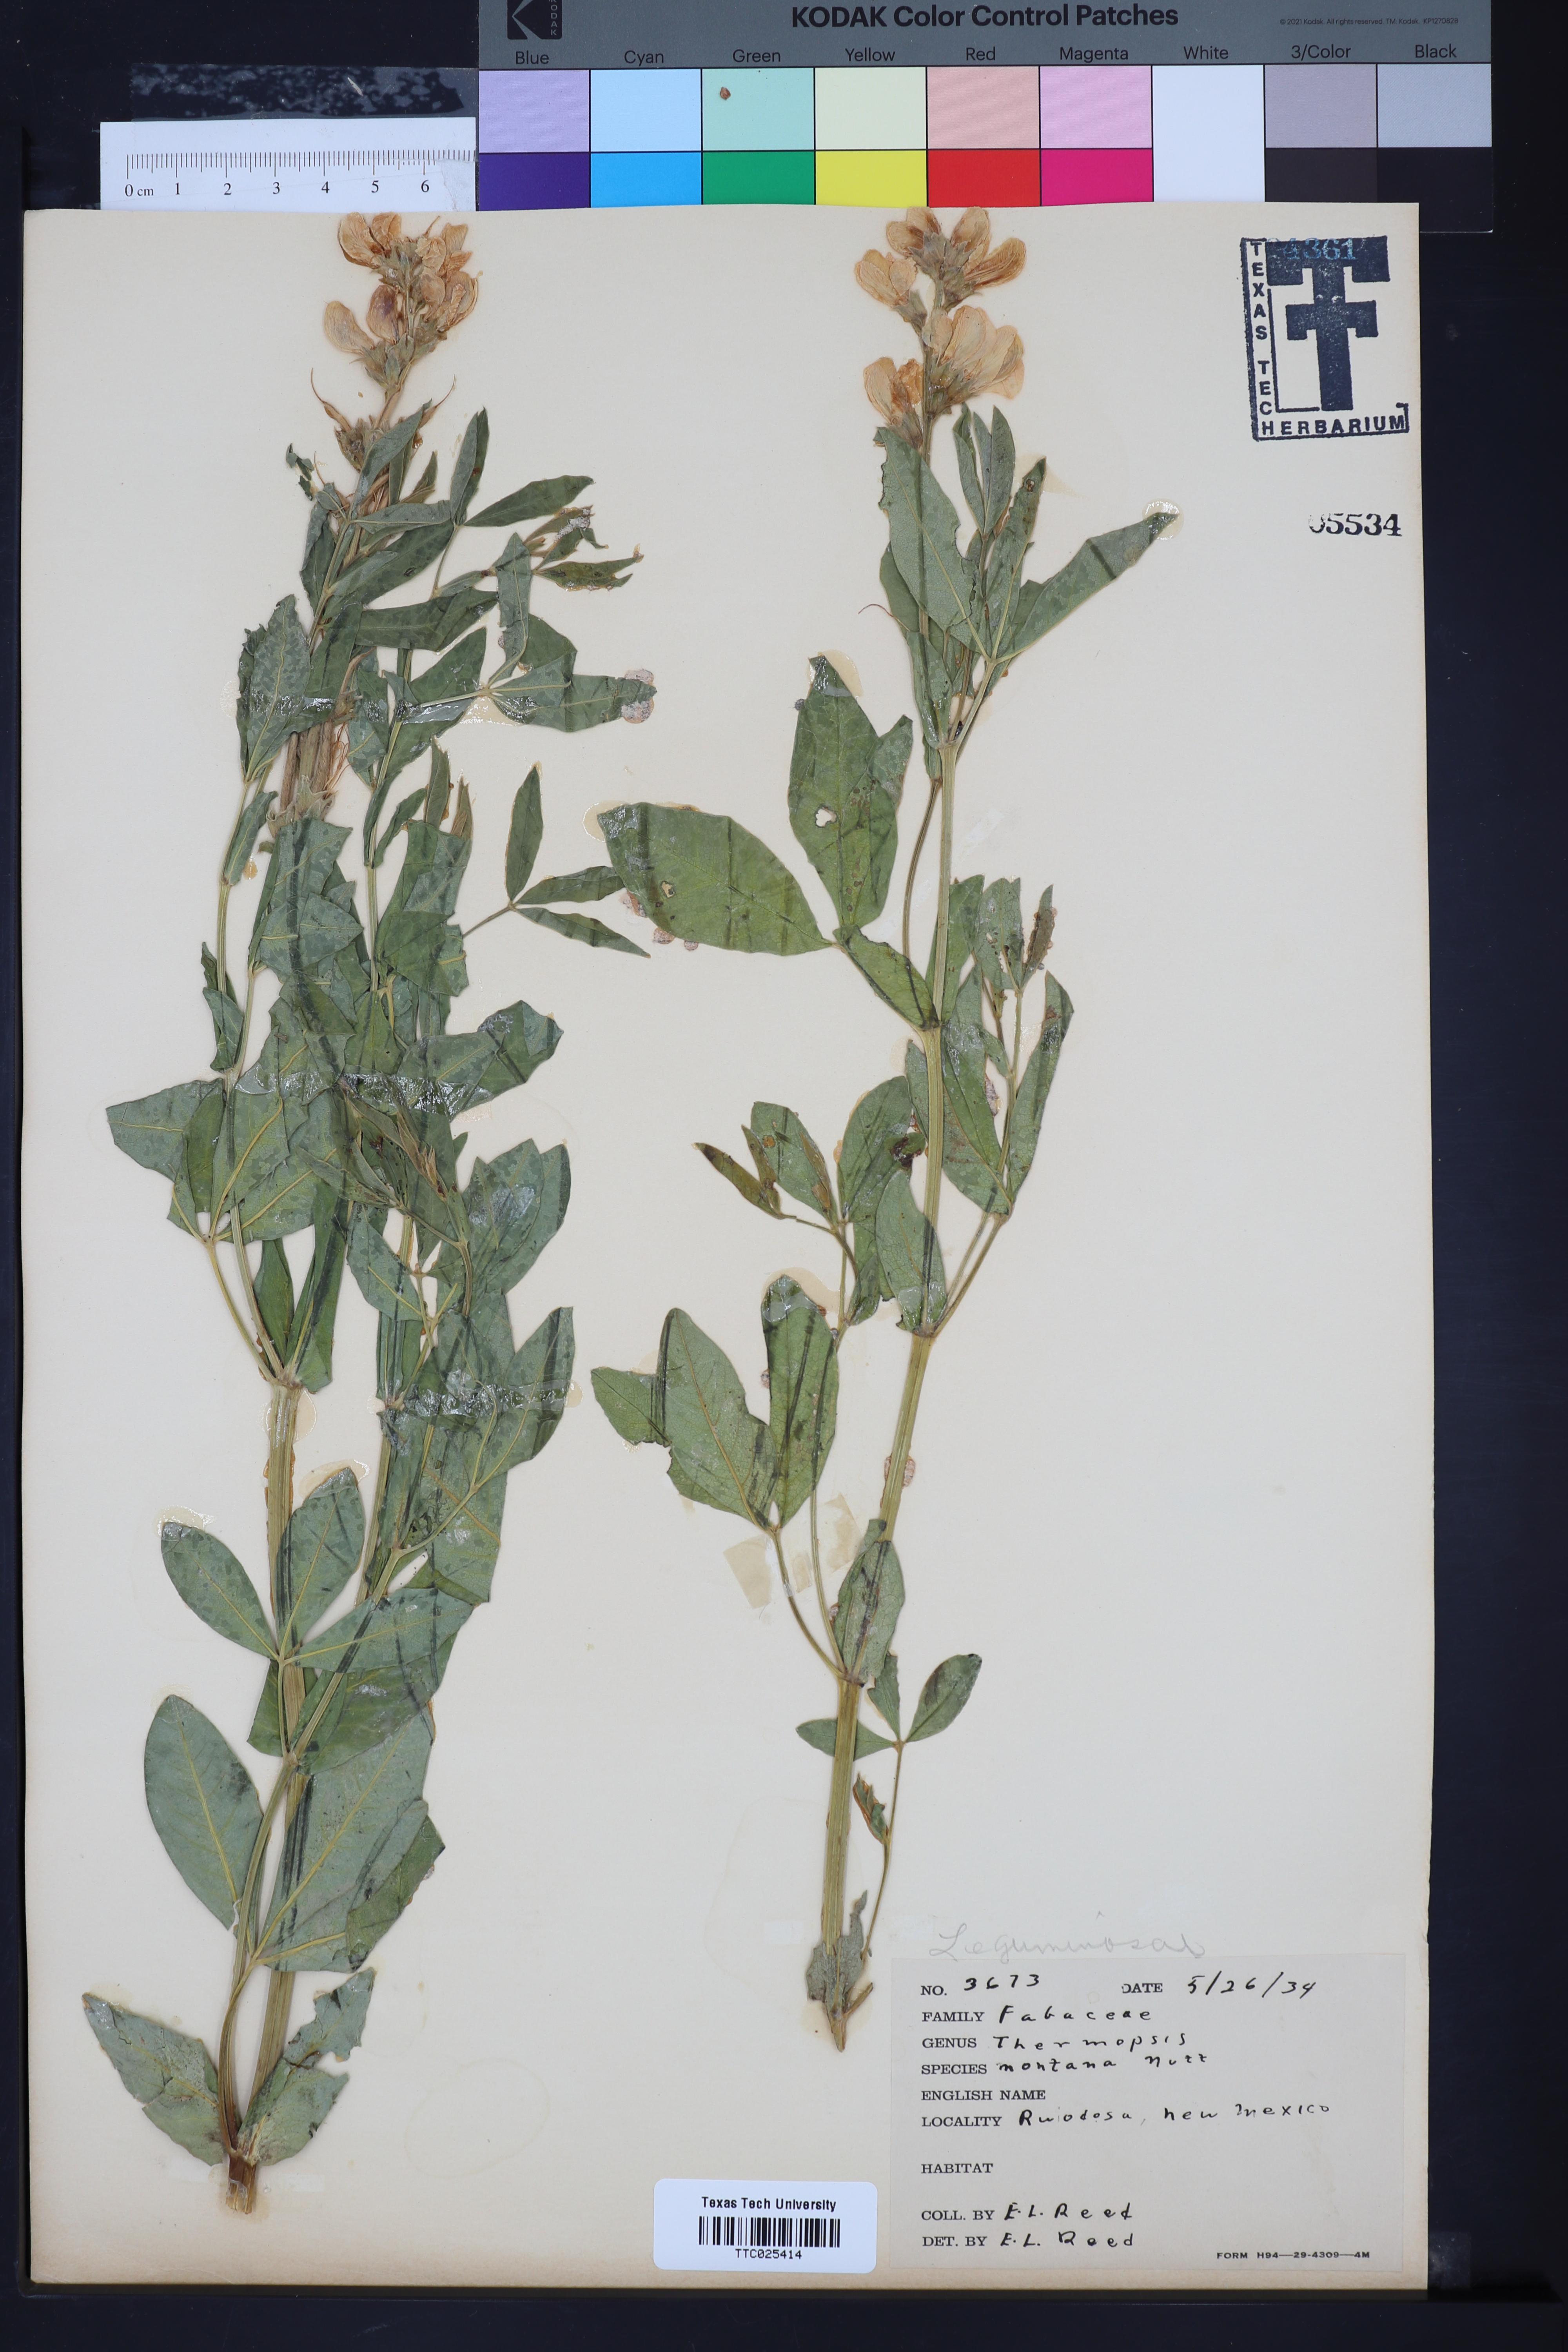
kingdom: Plantae
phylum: Tracheophyta
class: Magnoliopsida
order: Fabales
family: Fabaceae
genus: Thermopsis
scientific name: Thermopsis montana
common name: False lupin
